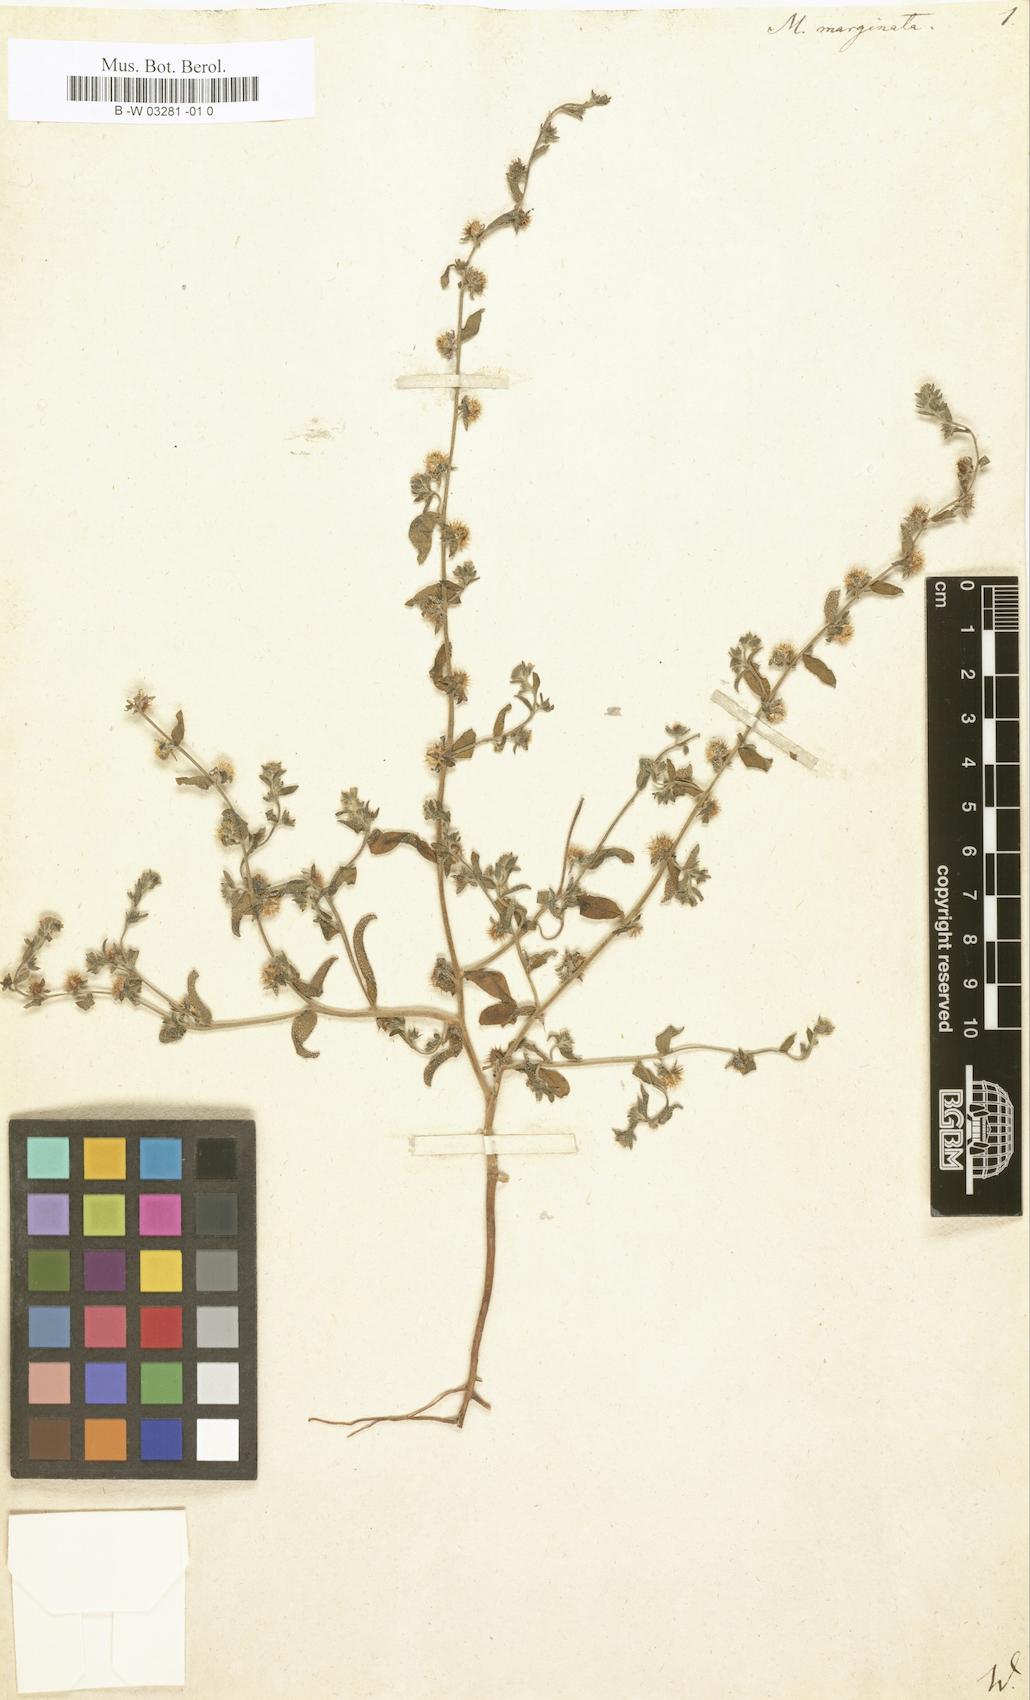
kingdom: Plantae
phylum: Tracheophyta
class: Magnoliopsida
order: Boraginales
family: Boraginaceae
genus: Lappula
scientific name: Lappula marginata
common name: Margined stickseed
